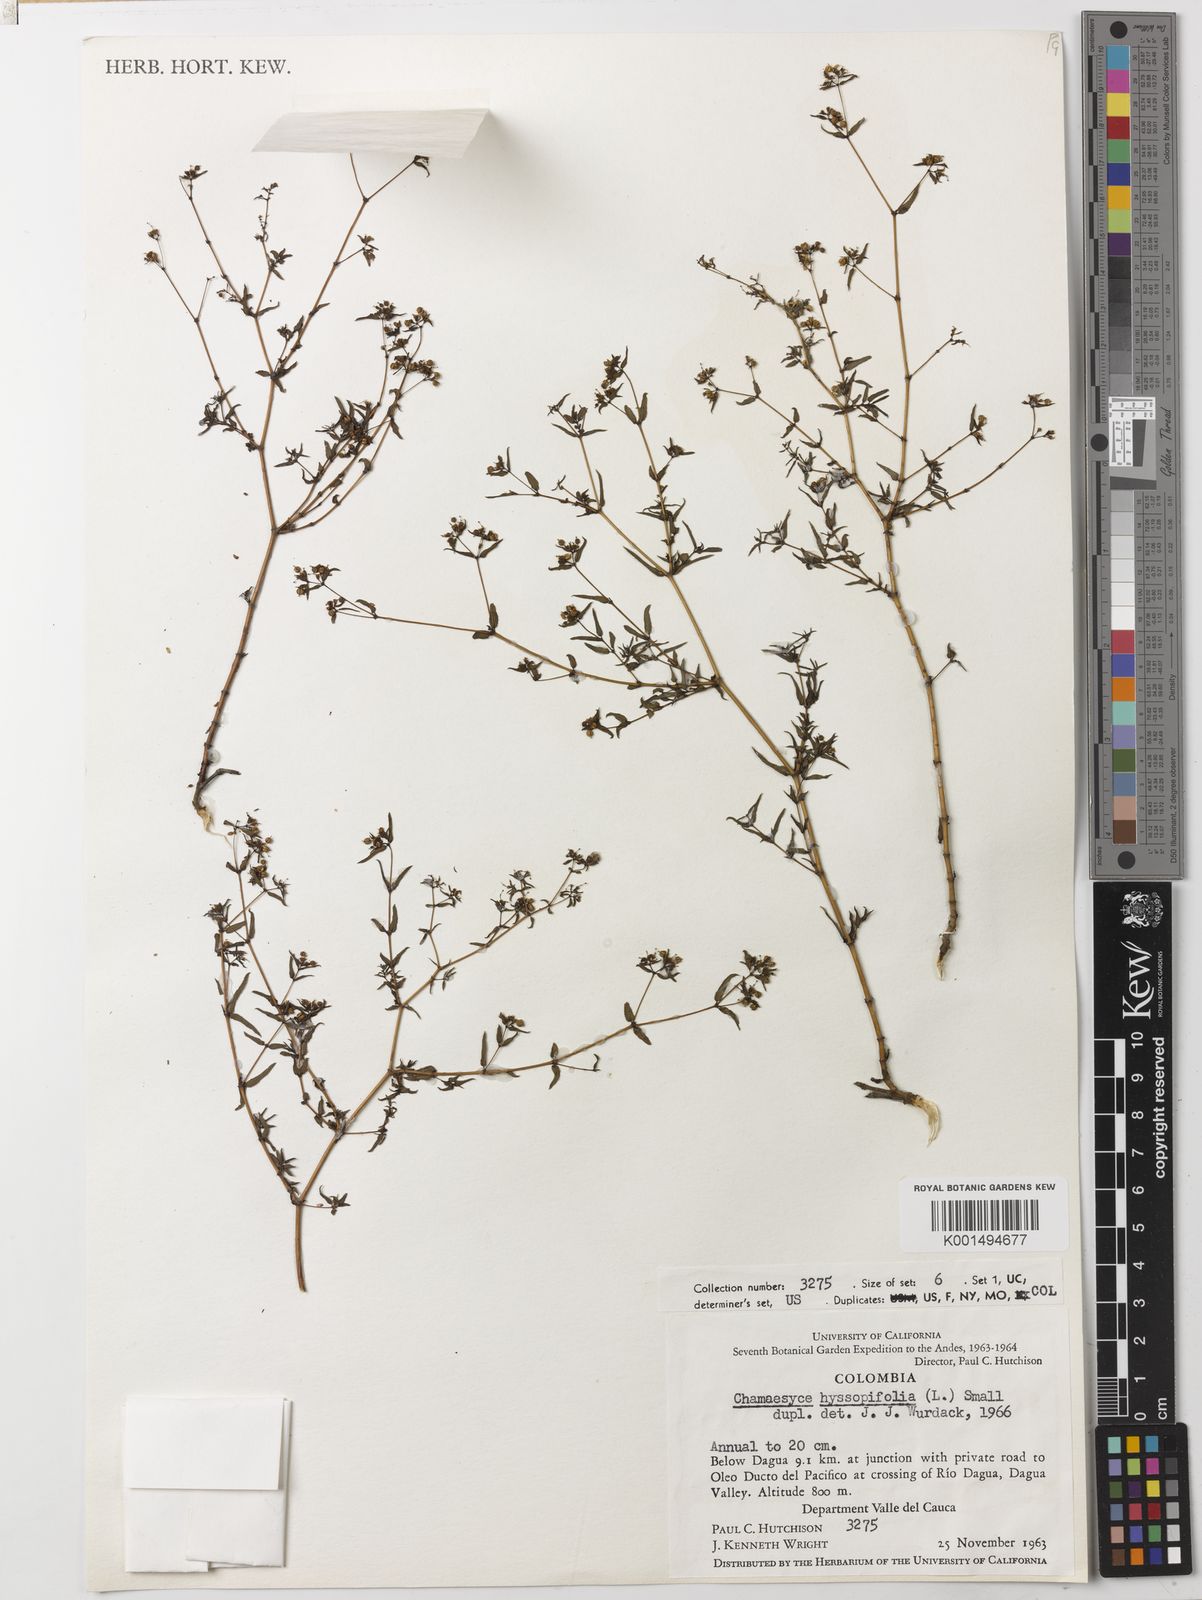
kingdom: Plantae
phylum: Tracheophyta
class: Magnoliopsida
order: Malpighiales
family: Euphorbiaceae
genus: Euphorbia
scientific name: Euphorbia hyssopifolia
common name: Hyssopleaf sandmat
